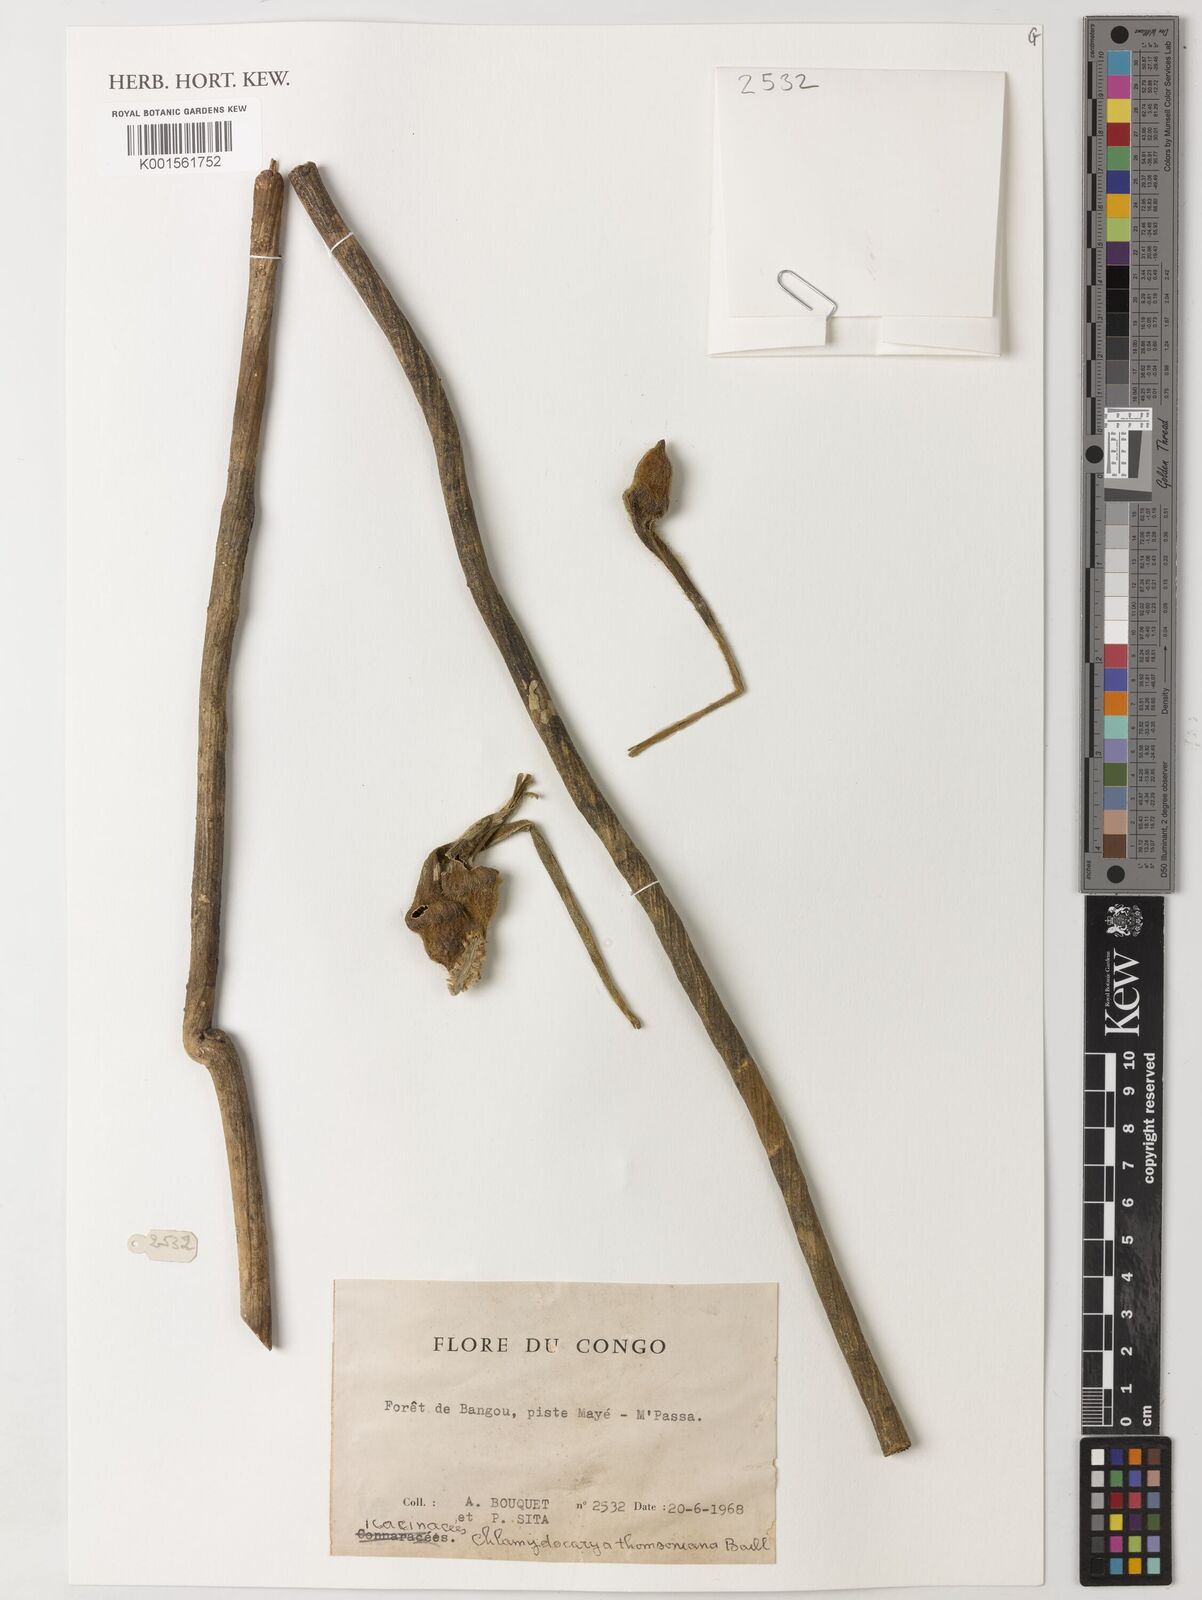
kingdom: Plantae
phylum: Tracheophyta
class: Magnoliopsida
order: Icacinales
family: Icacinaceae
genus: Pyrenacantha
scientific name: Pyrenacantha thomsoniana
